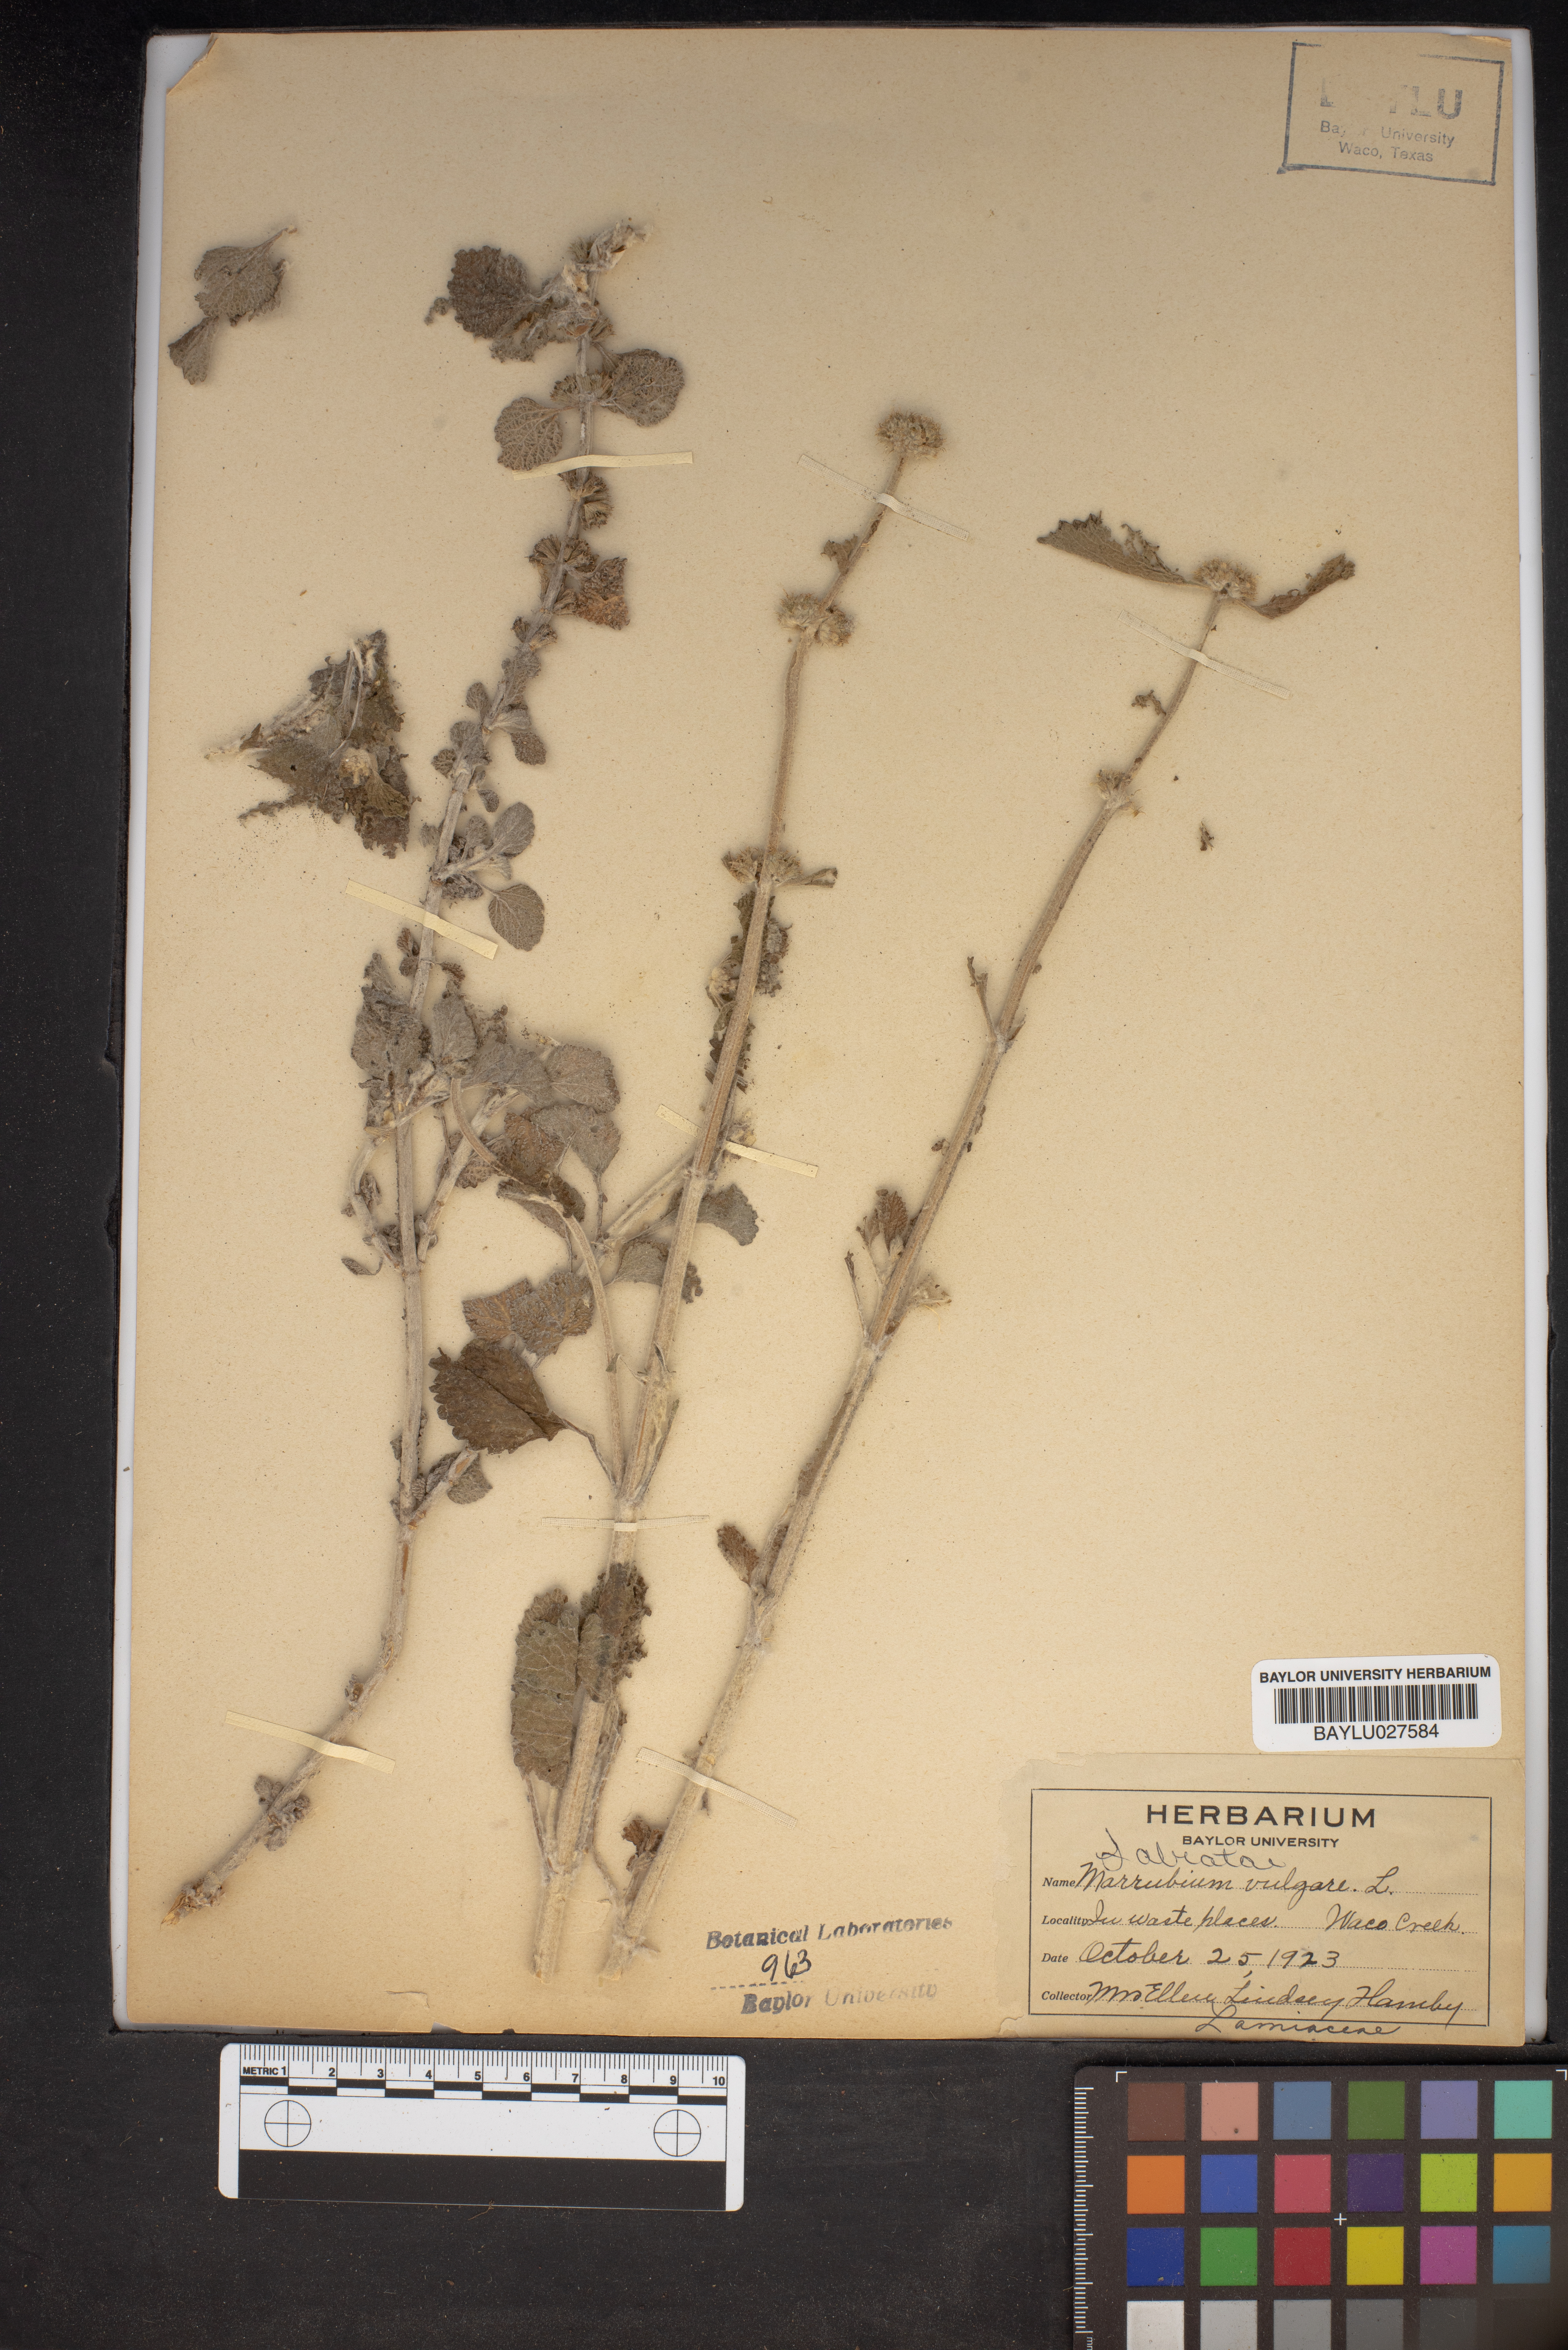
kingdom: Plantae
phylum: Tracheophyta
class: Magnoliopsida
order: Lamiales
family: Lamiaceae
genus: Marrubium
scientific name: Marrubium vulgare
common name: Horehound
